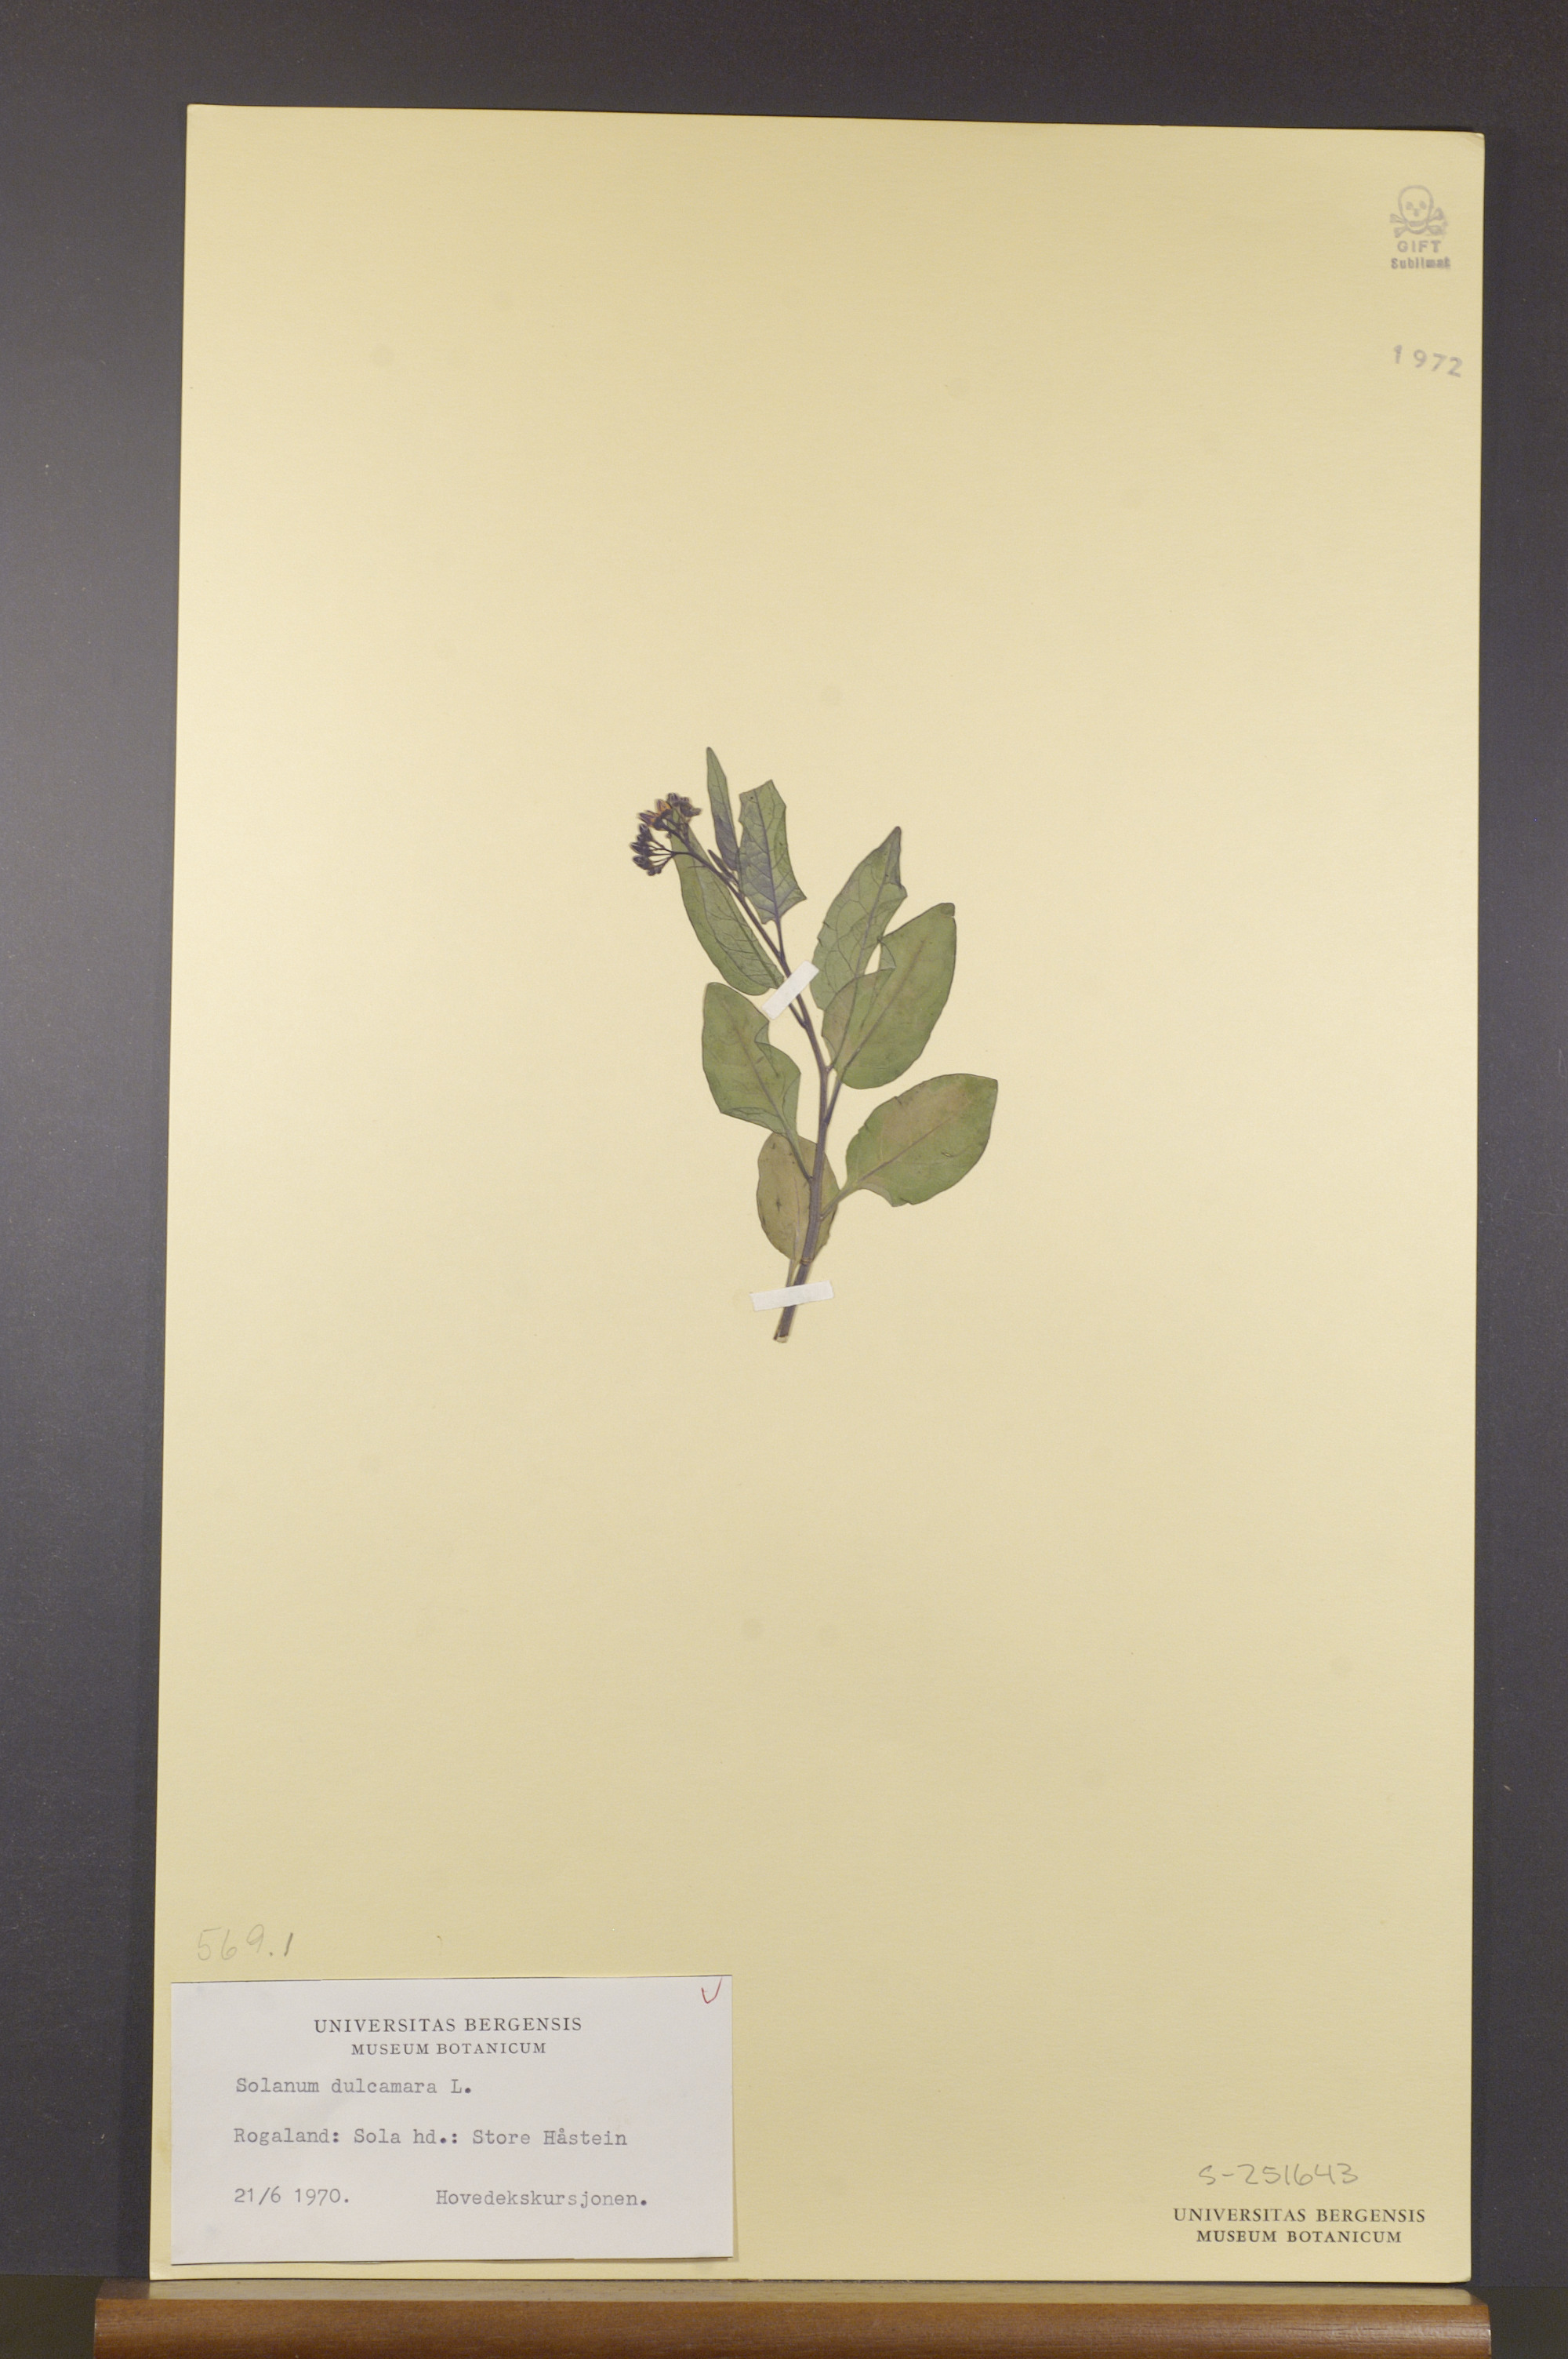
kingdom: Plantae
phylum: Tracheophyta
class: Magnoliopsida
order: Solanales
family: Solanaceae
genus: Solanum
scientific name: Solanum dulcamara
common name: Climbing nightshade
